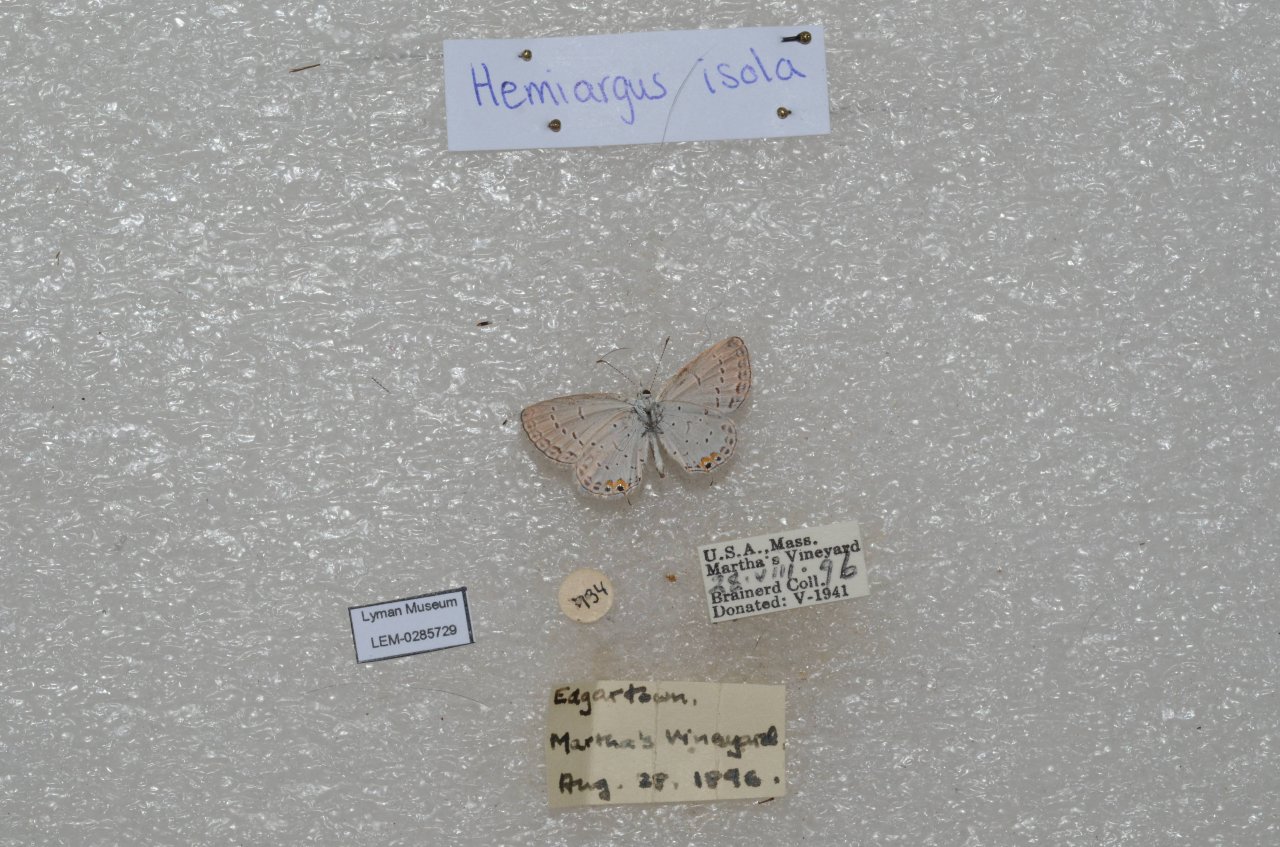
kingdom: Animalia
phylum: Arthropoda
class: Insecta
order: Lepidoptera
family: Lycaenidae
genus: Elkalyce
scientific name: Elkalyce comyntas
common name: Eastern Tailed-Blue
